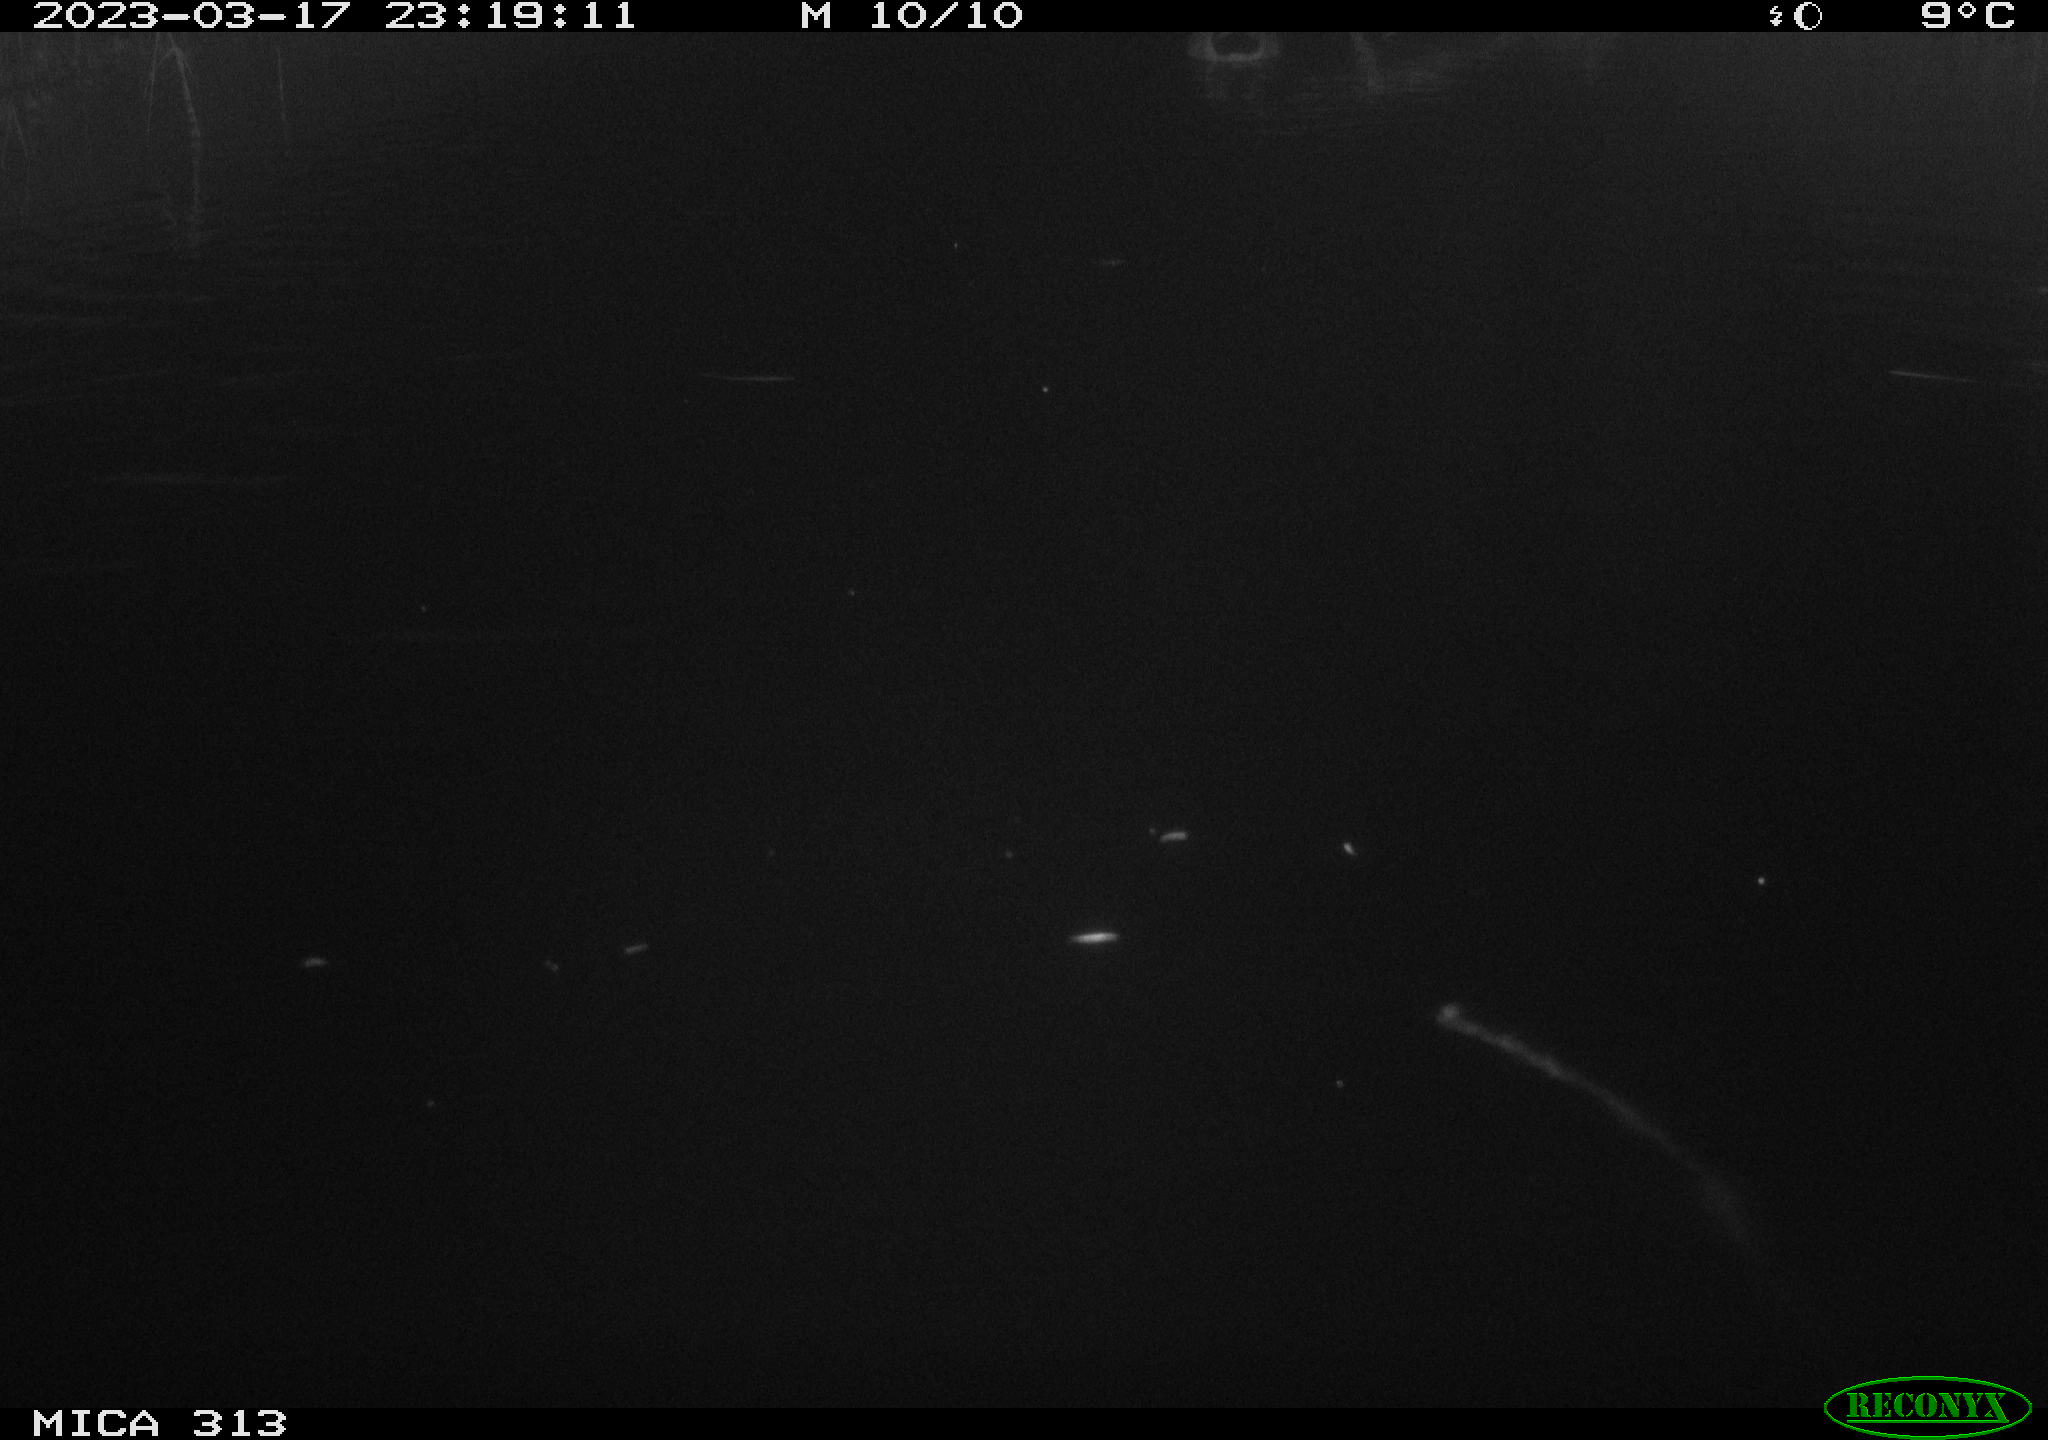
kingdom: Animalia
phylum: Chordata
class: Aves
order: Anseriformes
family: Anatidae
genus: Anas
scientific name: Anas
